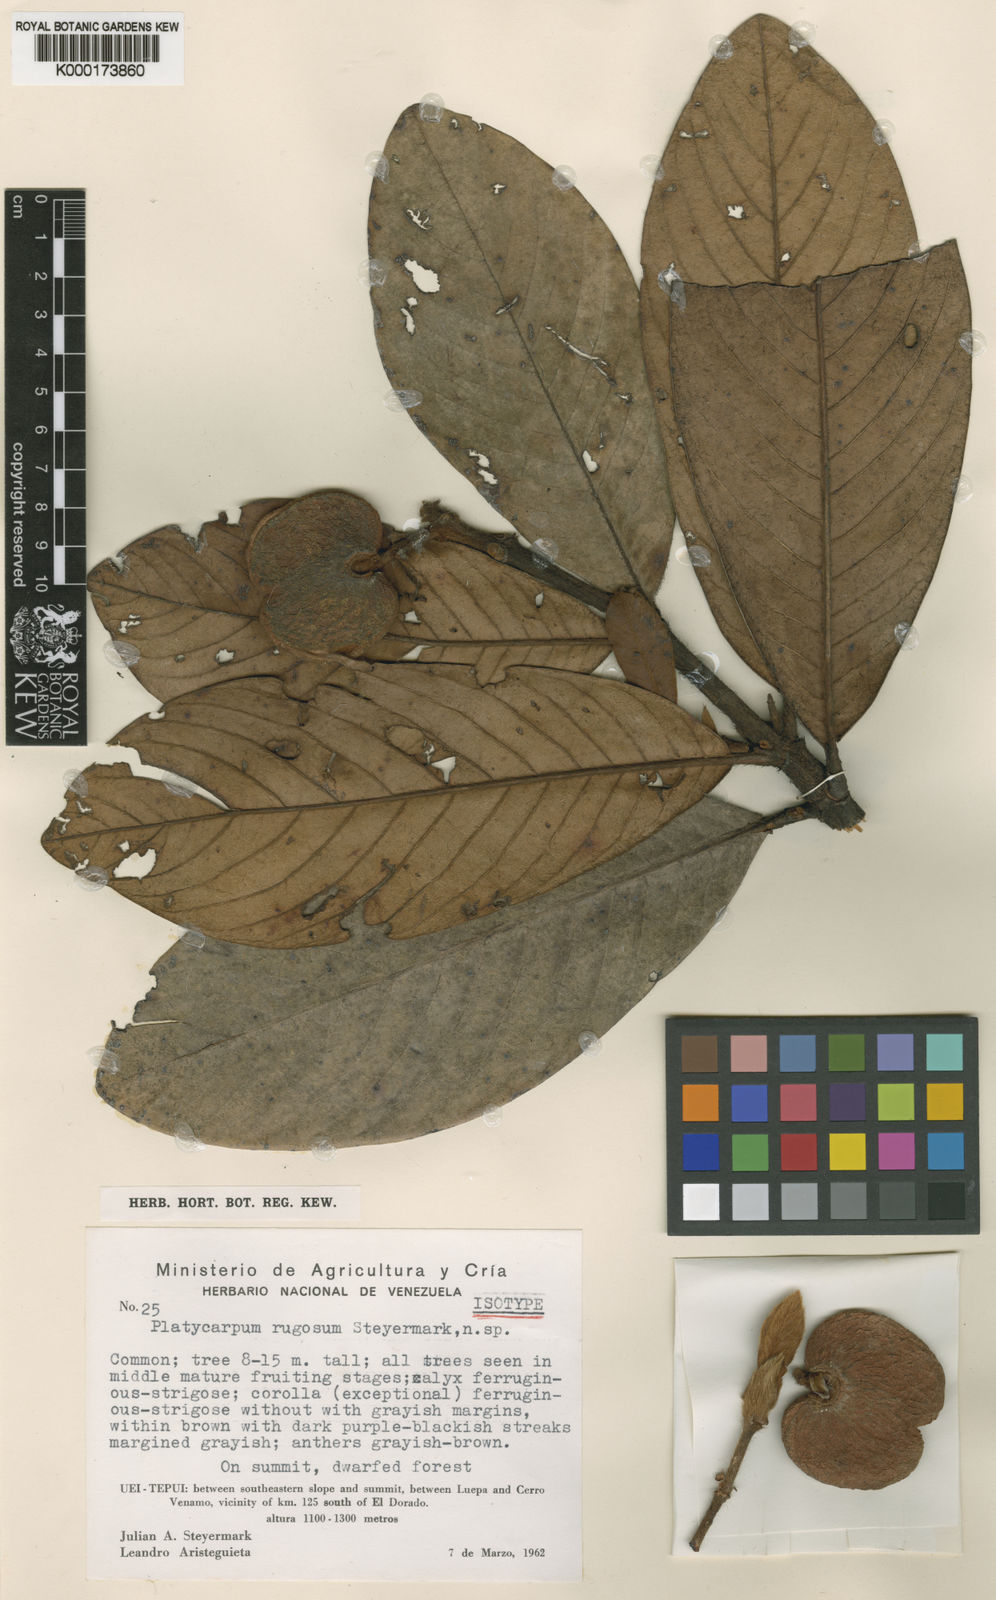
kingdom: Plantae
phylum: Tracheophyta
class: Magnoliopsida
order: Gentianales
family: Rubiaceae
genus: Platycarpum
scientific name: Platycarpum rugosum
